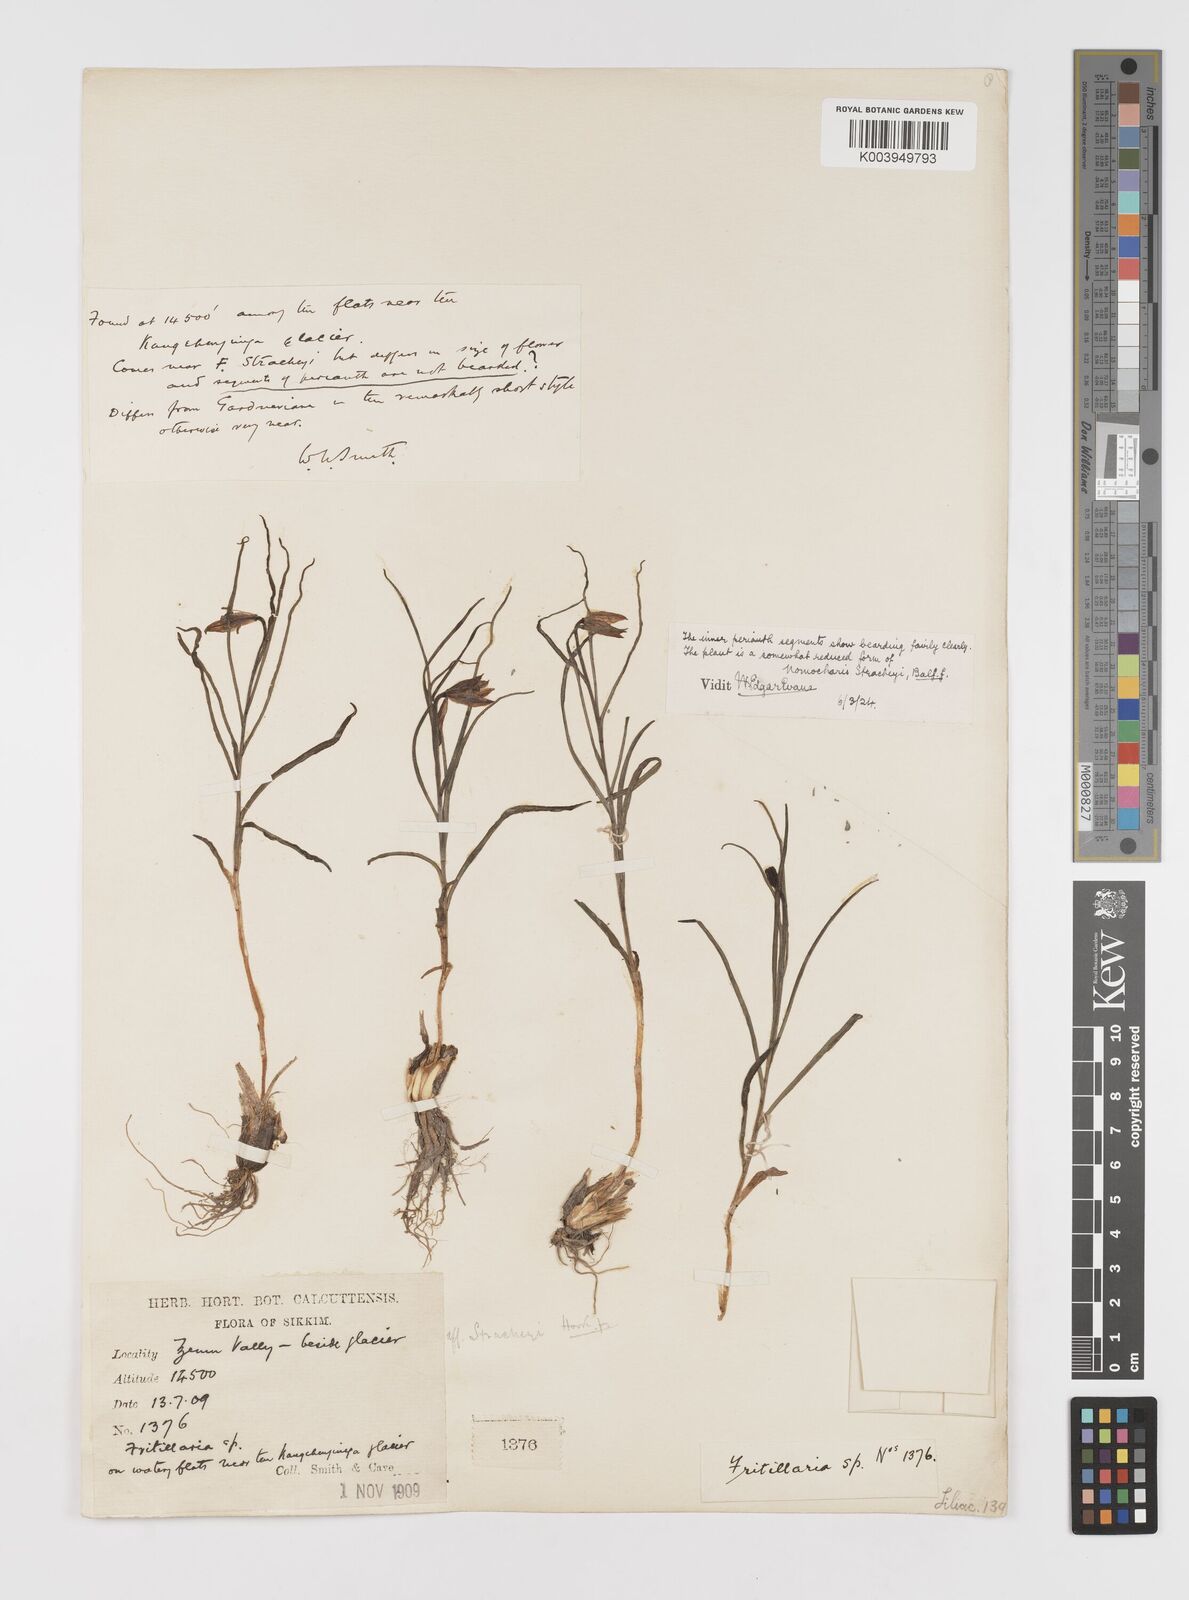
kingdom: Plantae
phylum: Tracheophyta
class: Liliopsida
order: Liliales
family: Liliaceae
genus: Lilium
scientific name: Lilium nanum
